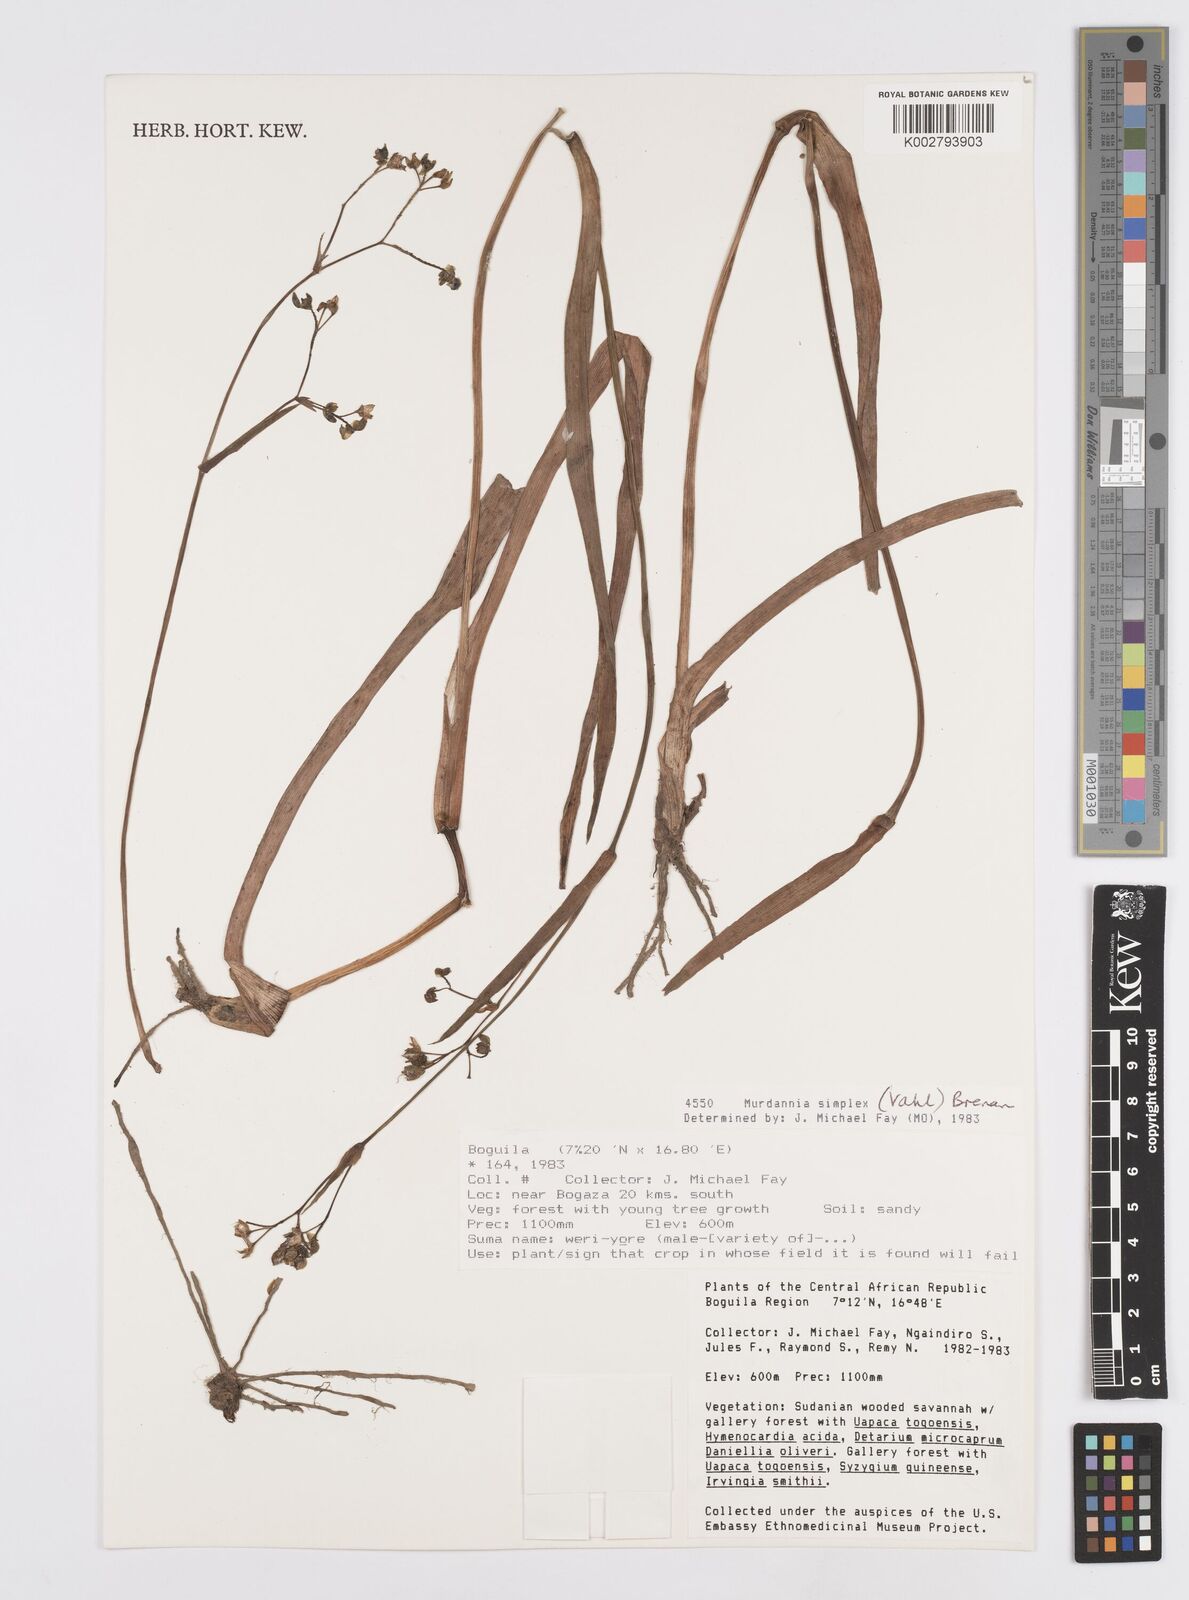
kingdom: Plantae
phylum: Tracheophyta
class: Liliopsida
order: Commelinales
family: Commelinaceae
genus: Murdannia
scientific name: Murdannia simplex
